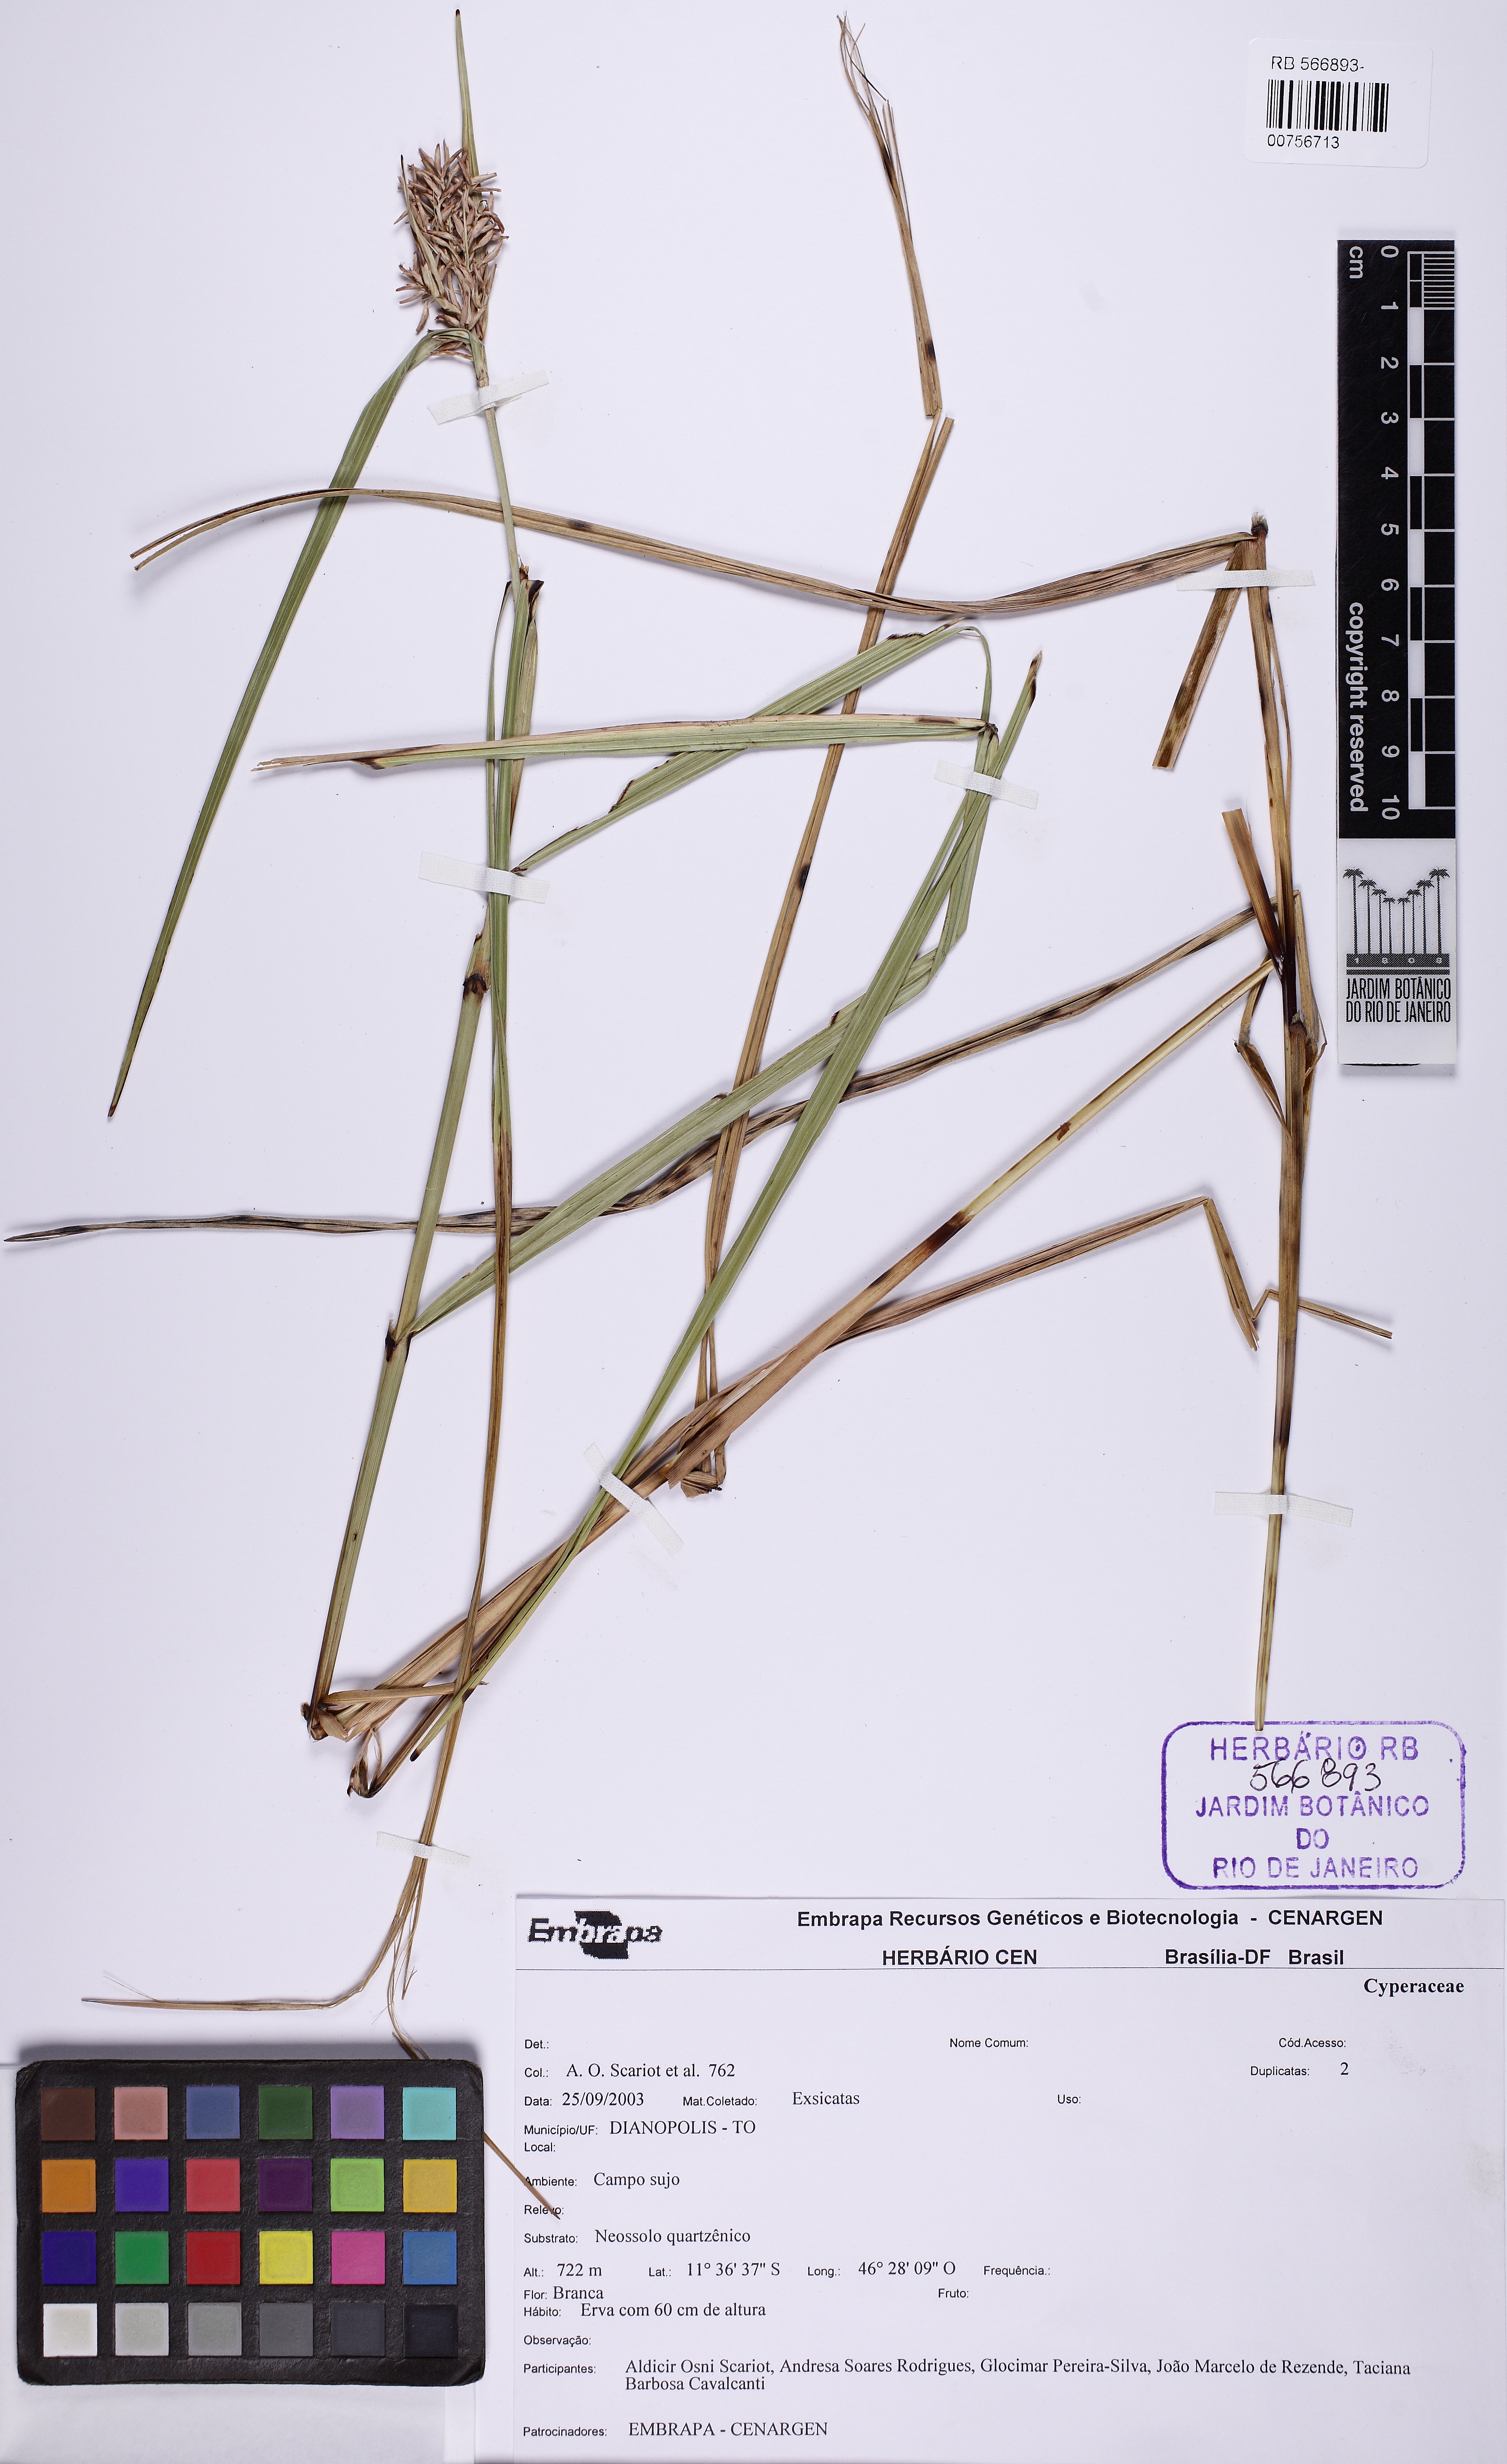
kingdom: Plantae
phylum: Tracheophyta
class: Liliopsida
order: Poales
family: Cyperaceae
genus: Scleria
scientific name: Scleria scabra
